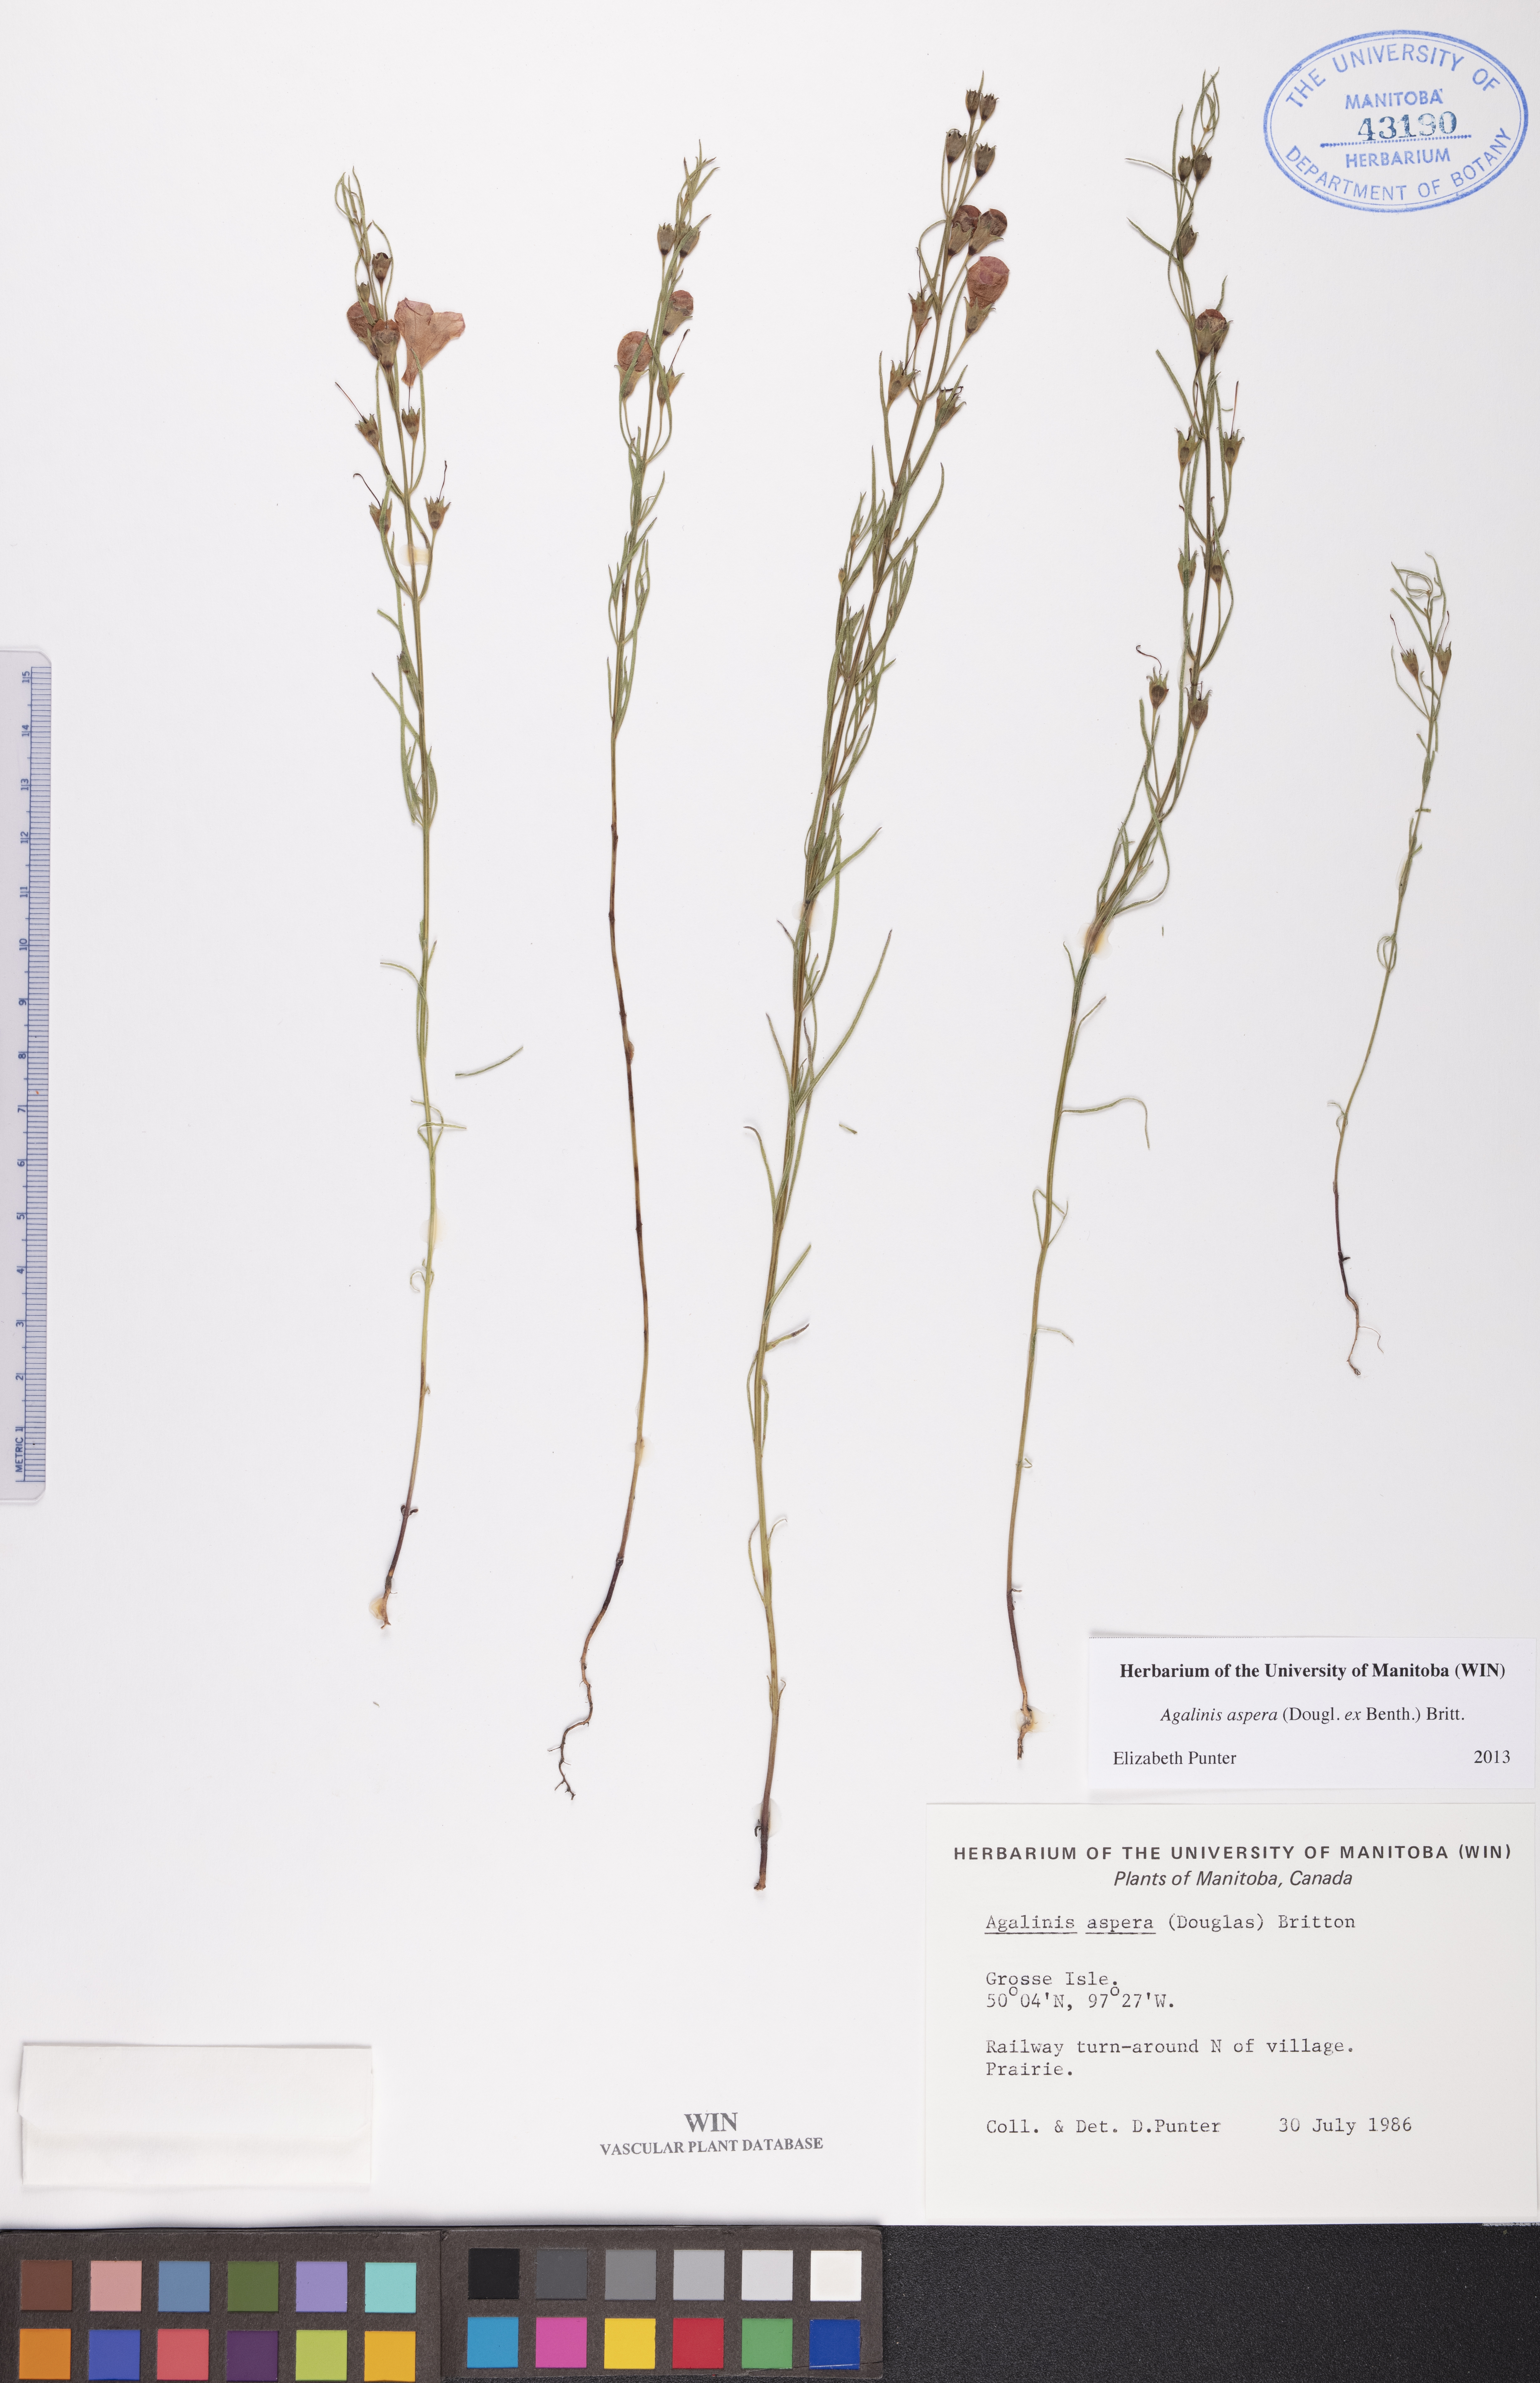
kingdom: Plantae
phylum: Tracheophyta
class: Magnoliopsida
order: Lamiales
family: Orobanchaceae
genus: Agalinis
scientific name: Agalinis aspera
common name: Rough agalinis
